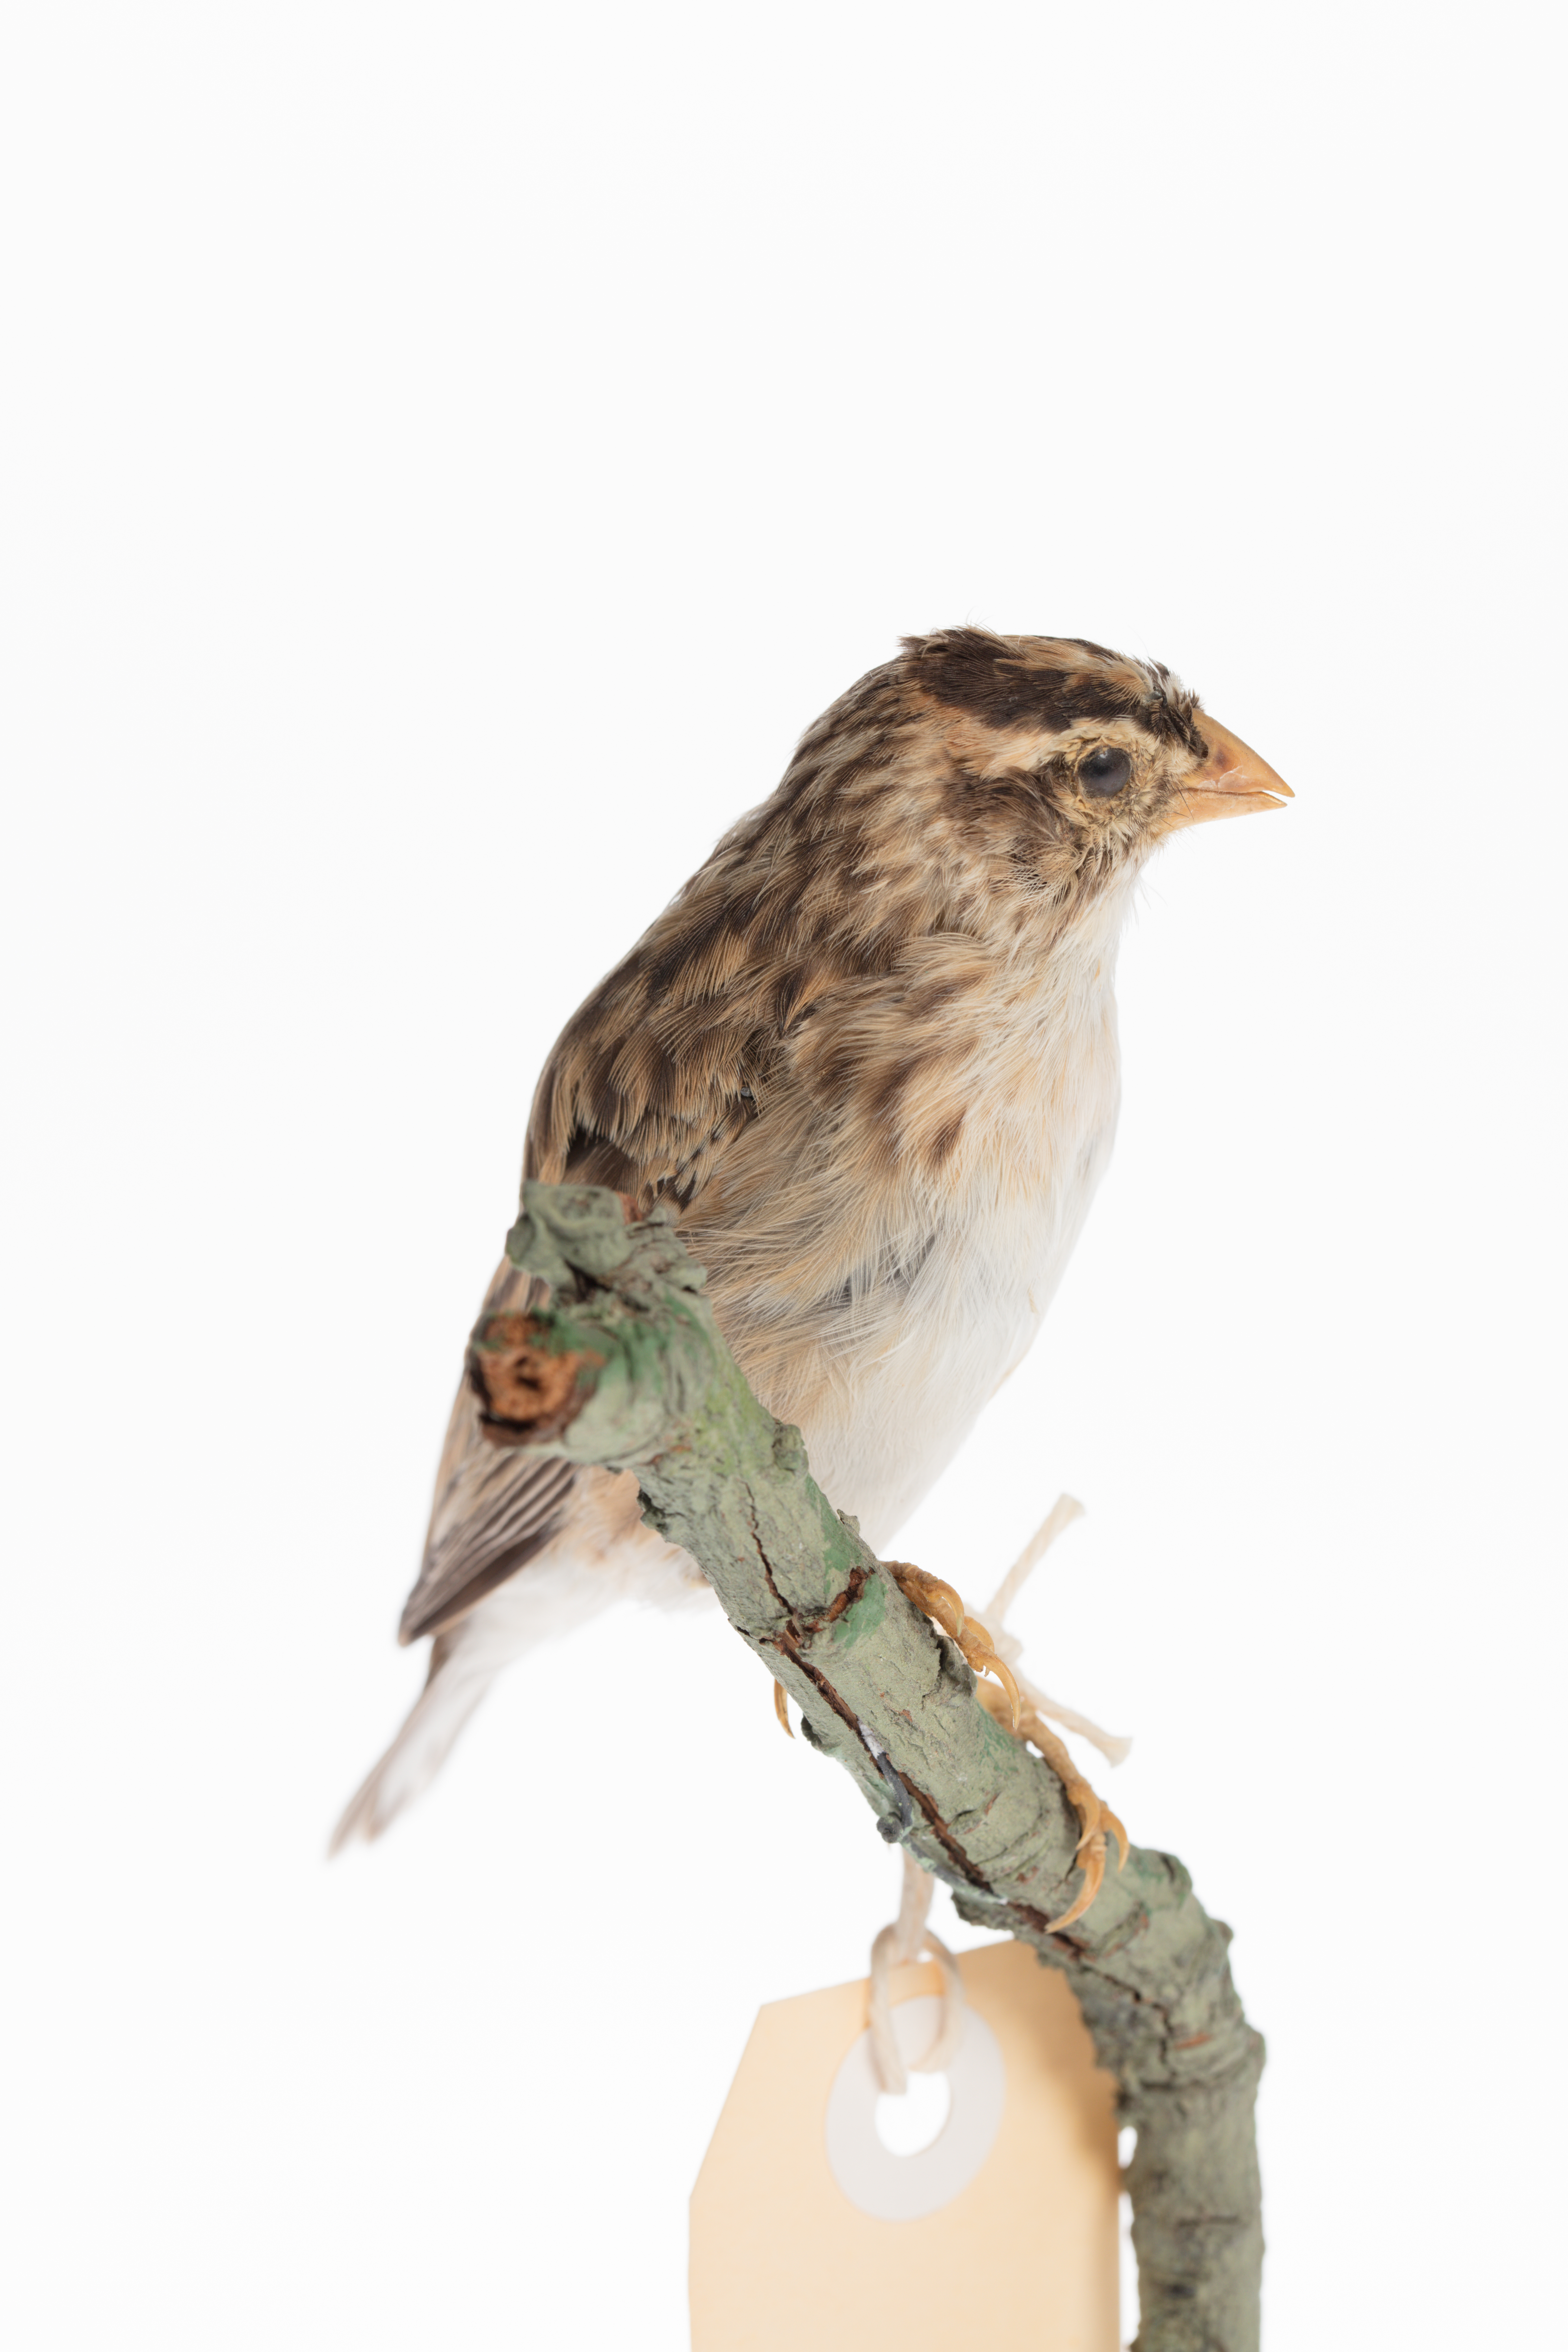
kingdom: Animalia
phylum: Chordata
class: Aves
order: Passeriformes
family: Viduidae
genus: Vidua
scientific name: Vidua regia
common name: Shaft-tailed whydah
